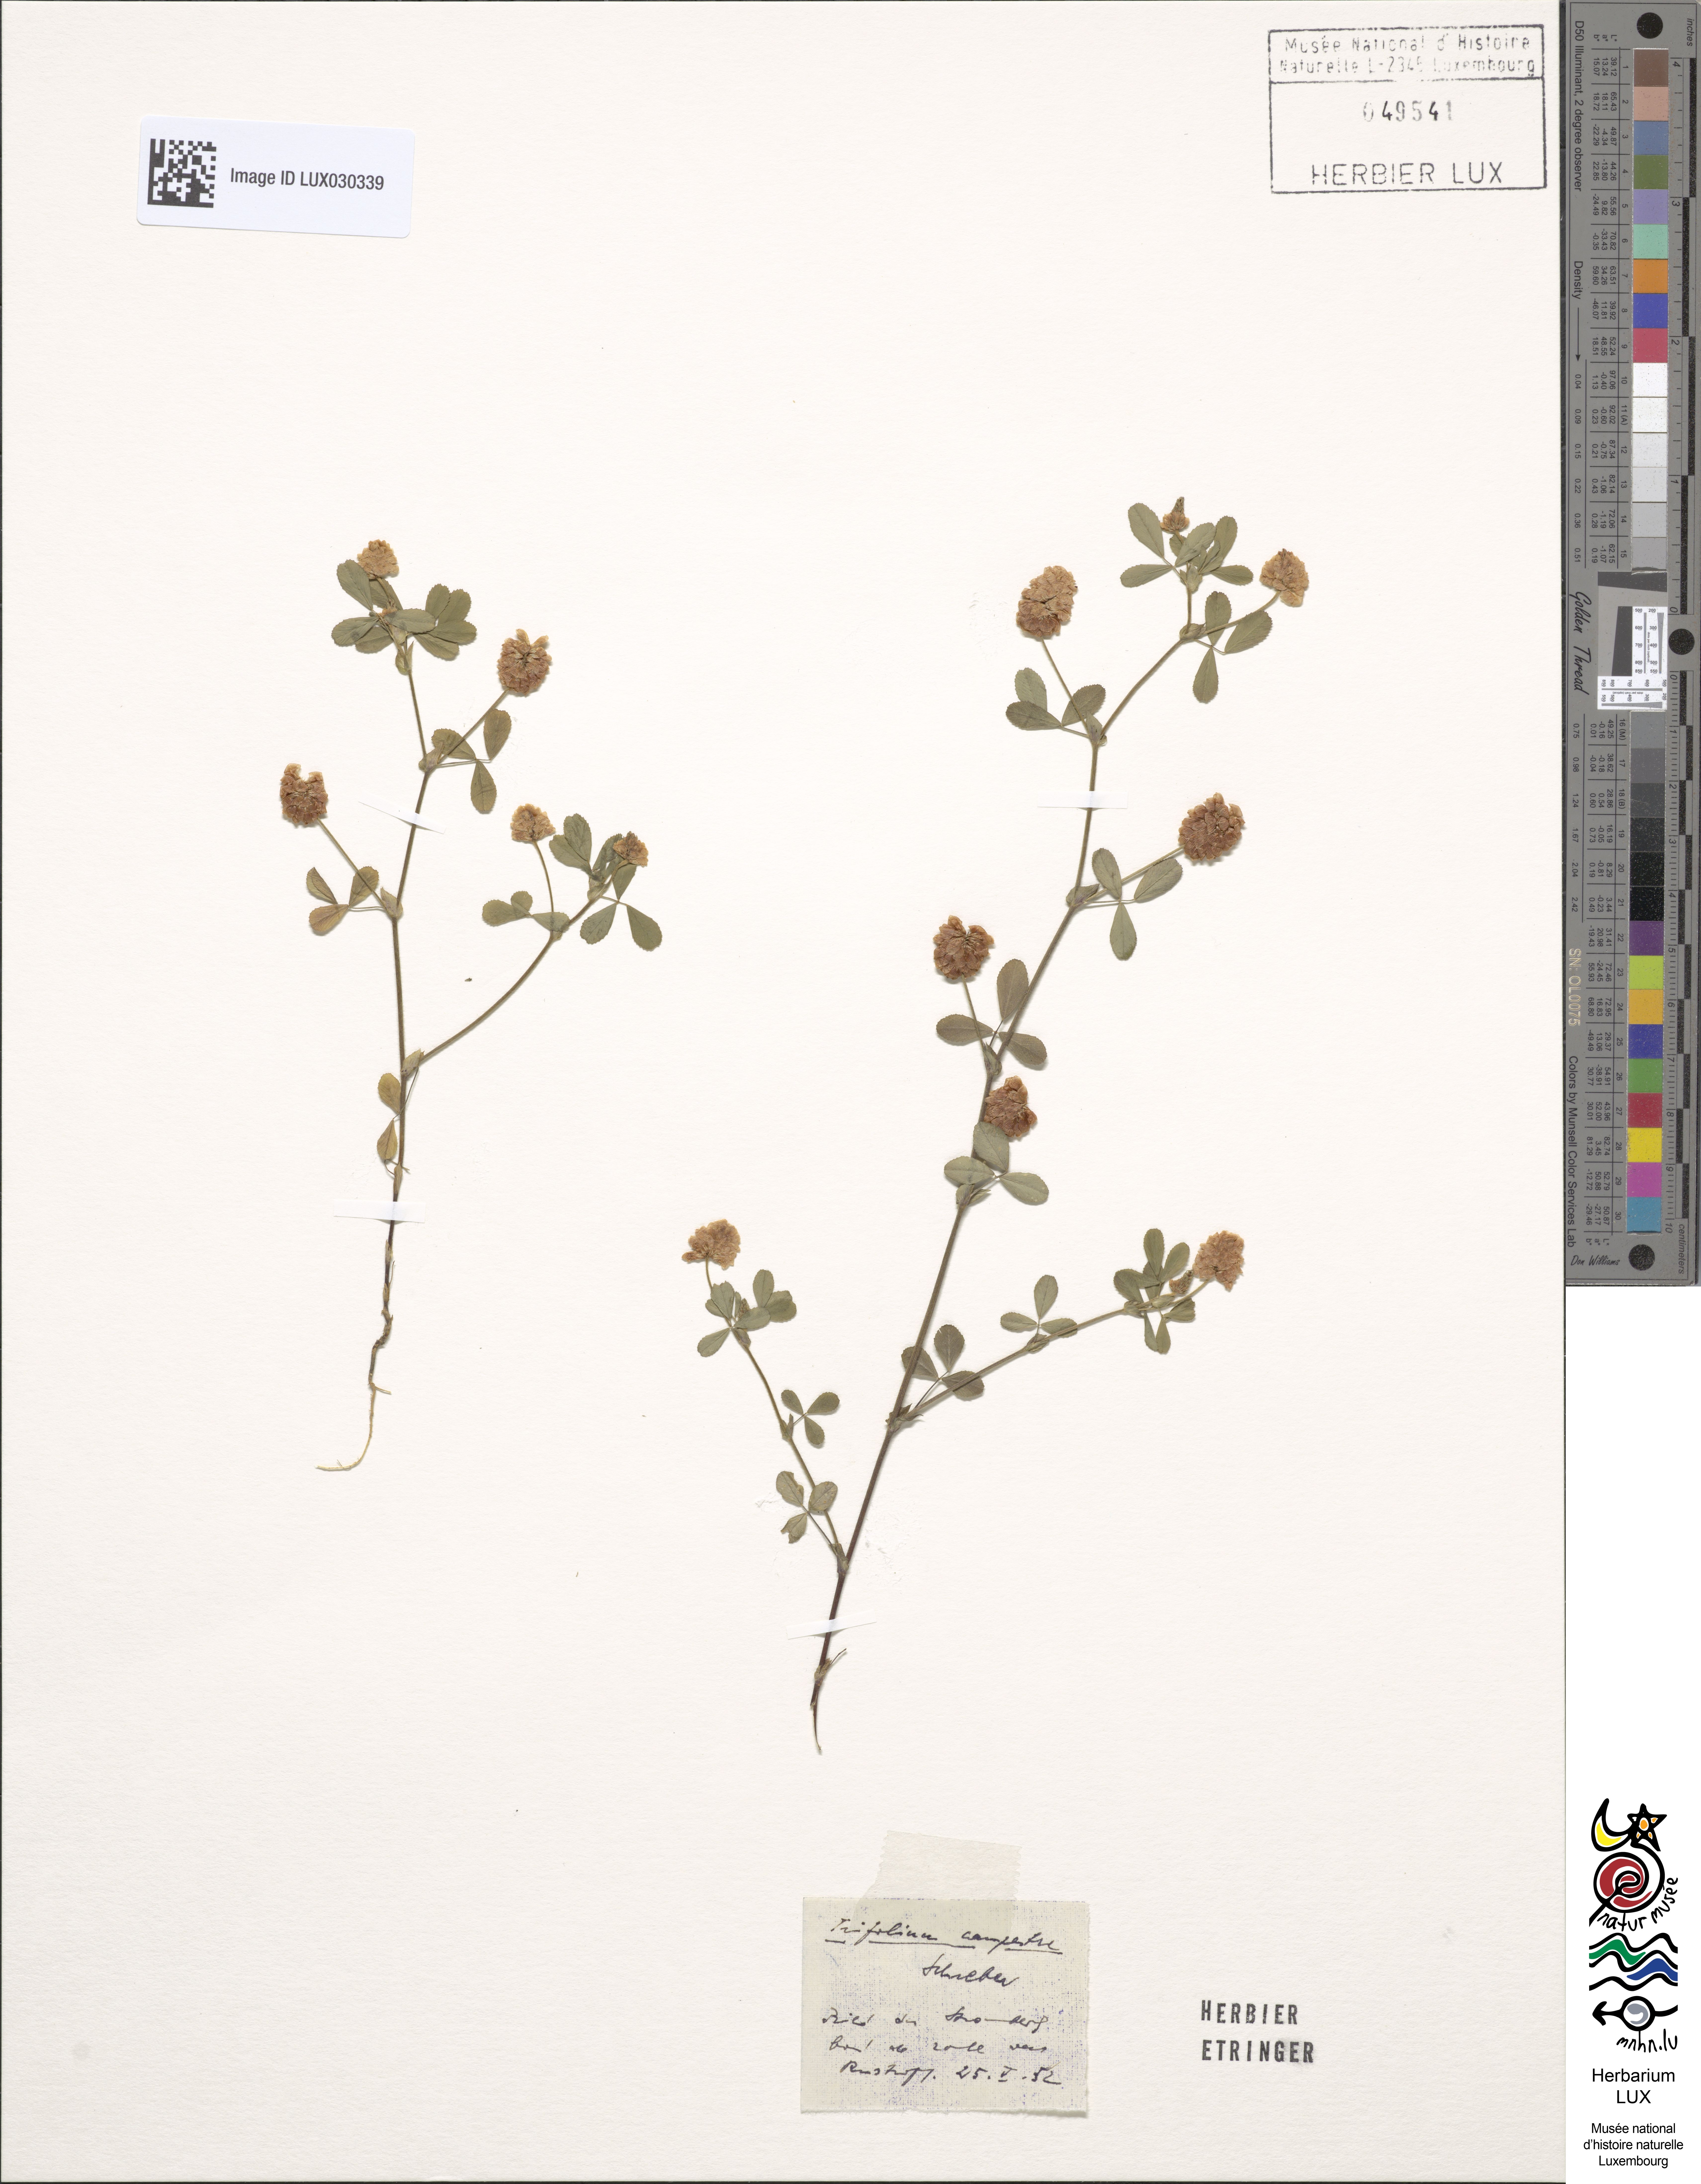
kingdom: Plantae
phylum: Tracheophyta
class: Magnoliopsida
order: Fabales
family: Fabaceae
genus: Trifolium
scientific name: Trifolium campestre
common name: Field clover
